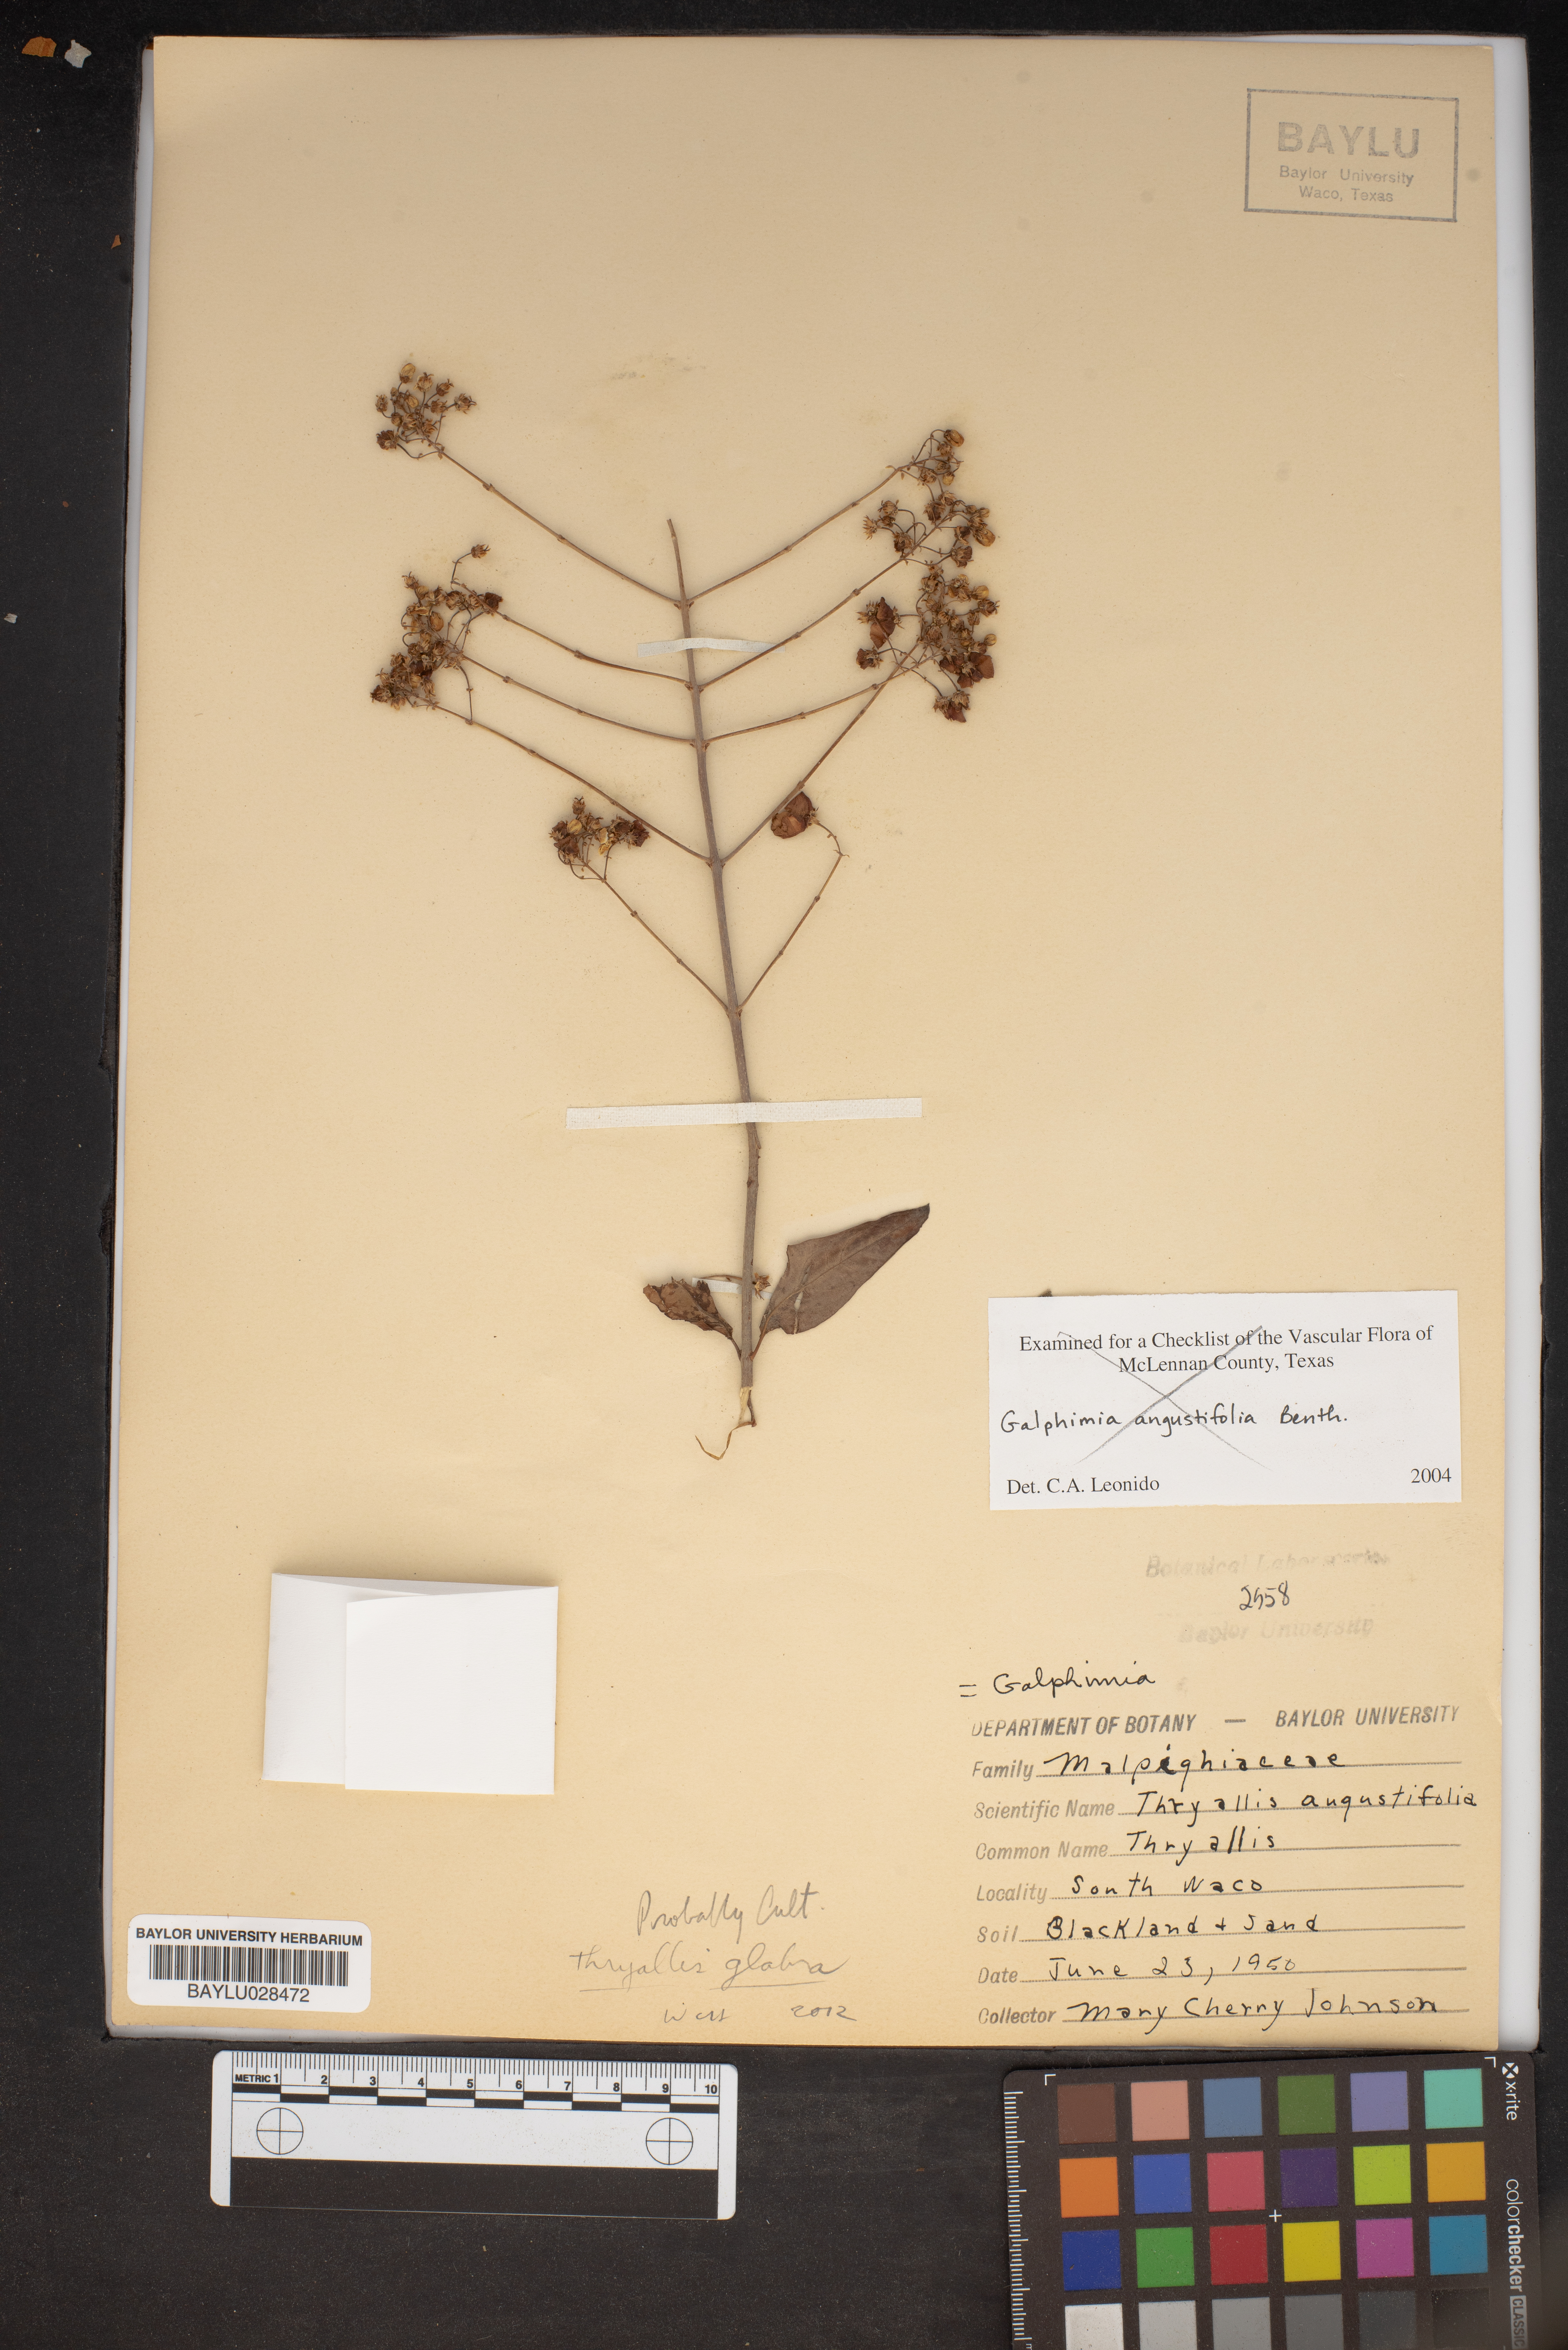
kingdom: Plantae
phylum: Tracheophyta
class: Magnoliopsida
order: Malpighiales
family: Malpighiaceae
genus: Galphimia
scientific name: Galphimia angustifolia
